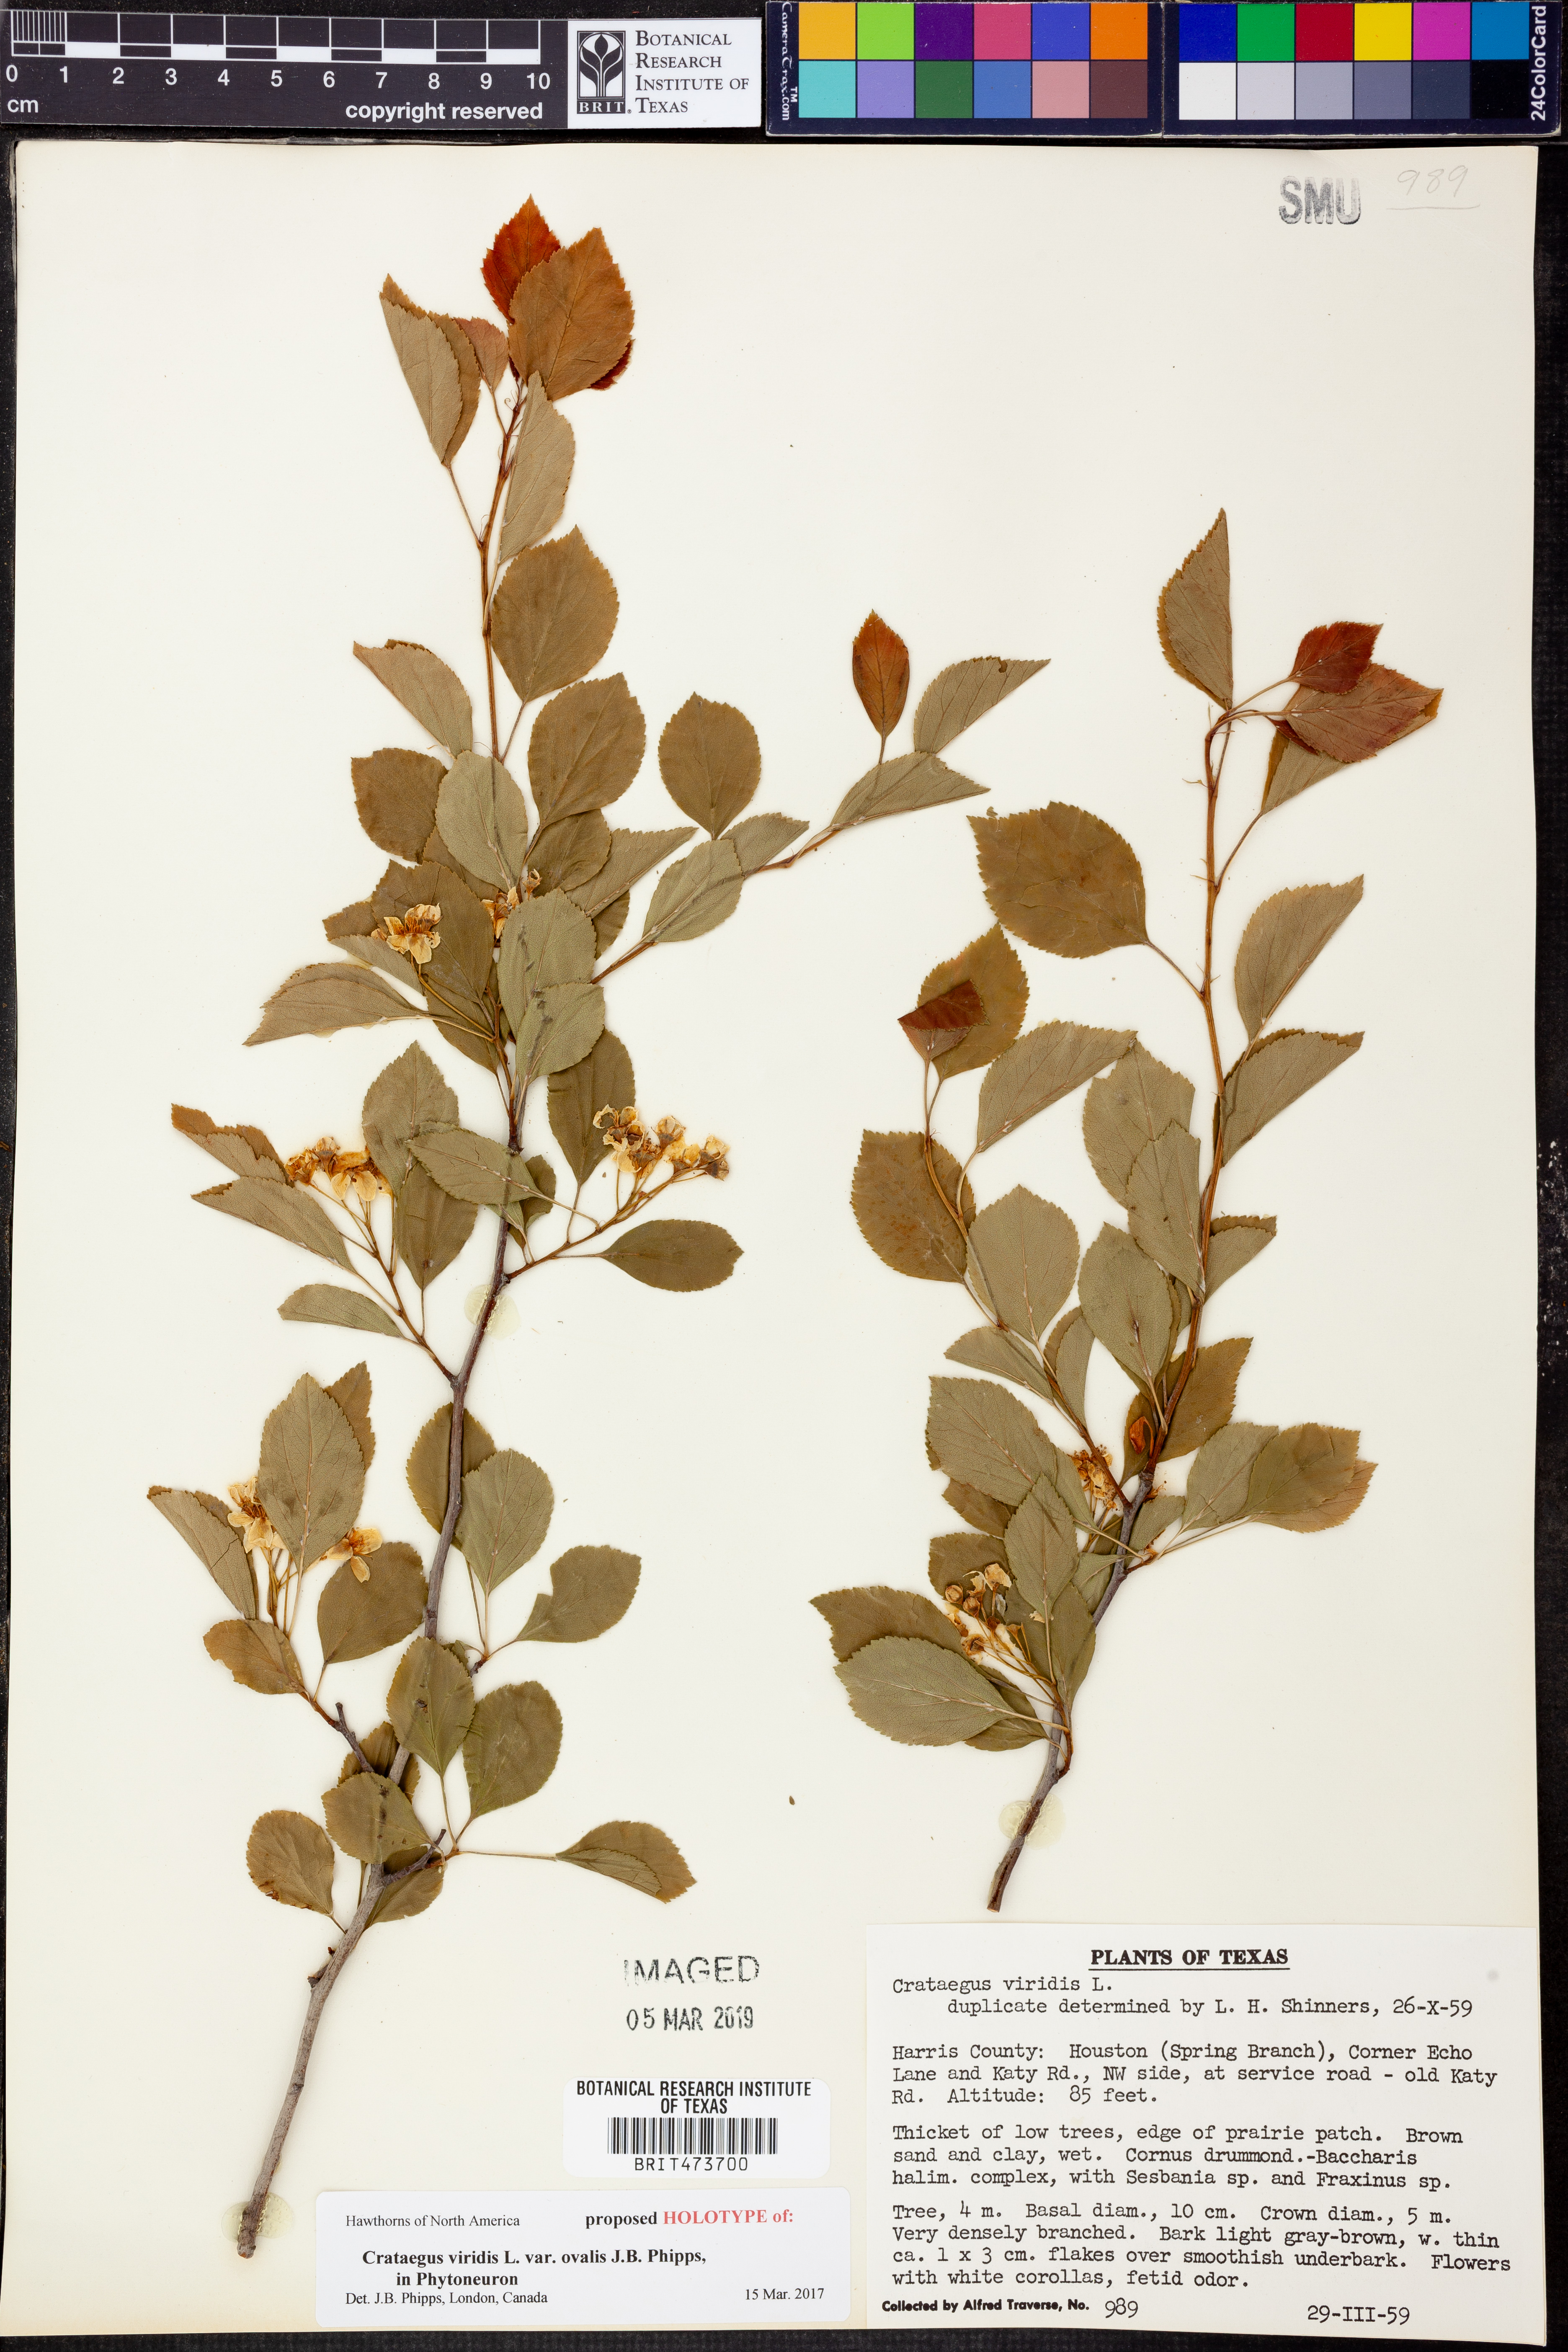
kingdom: Plantae
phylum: Tracheophyta
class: Magnoliopsida
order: Rosales
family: Rosaceae
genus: Crataegus
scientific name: Crataegus viridis
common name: Southernthorn
